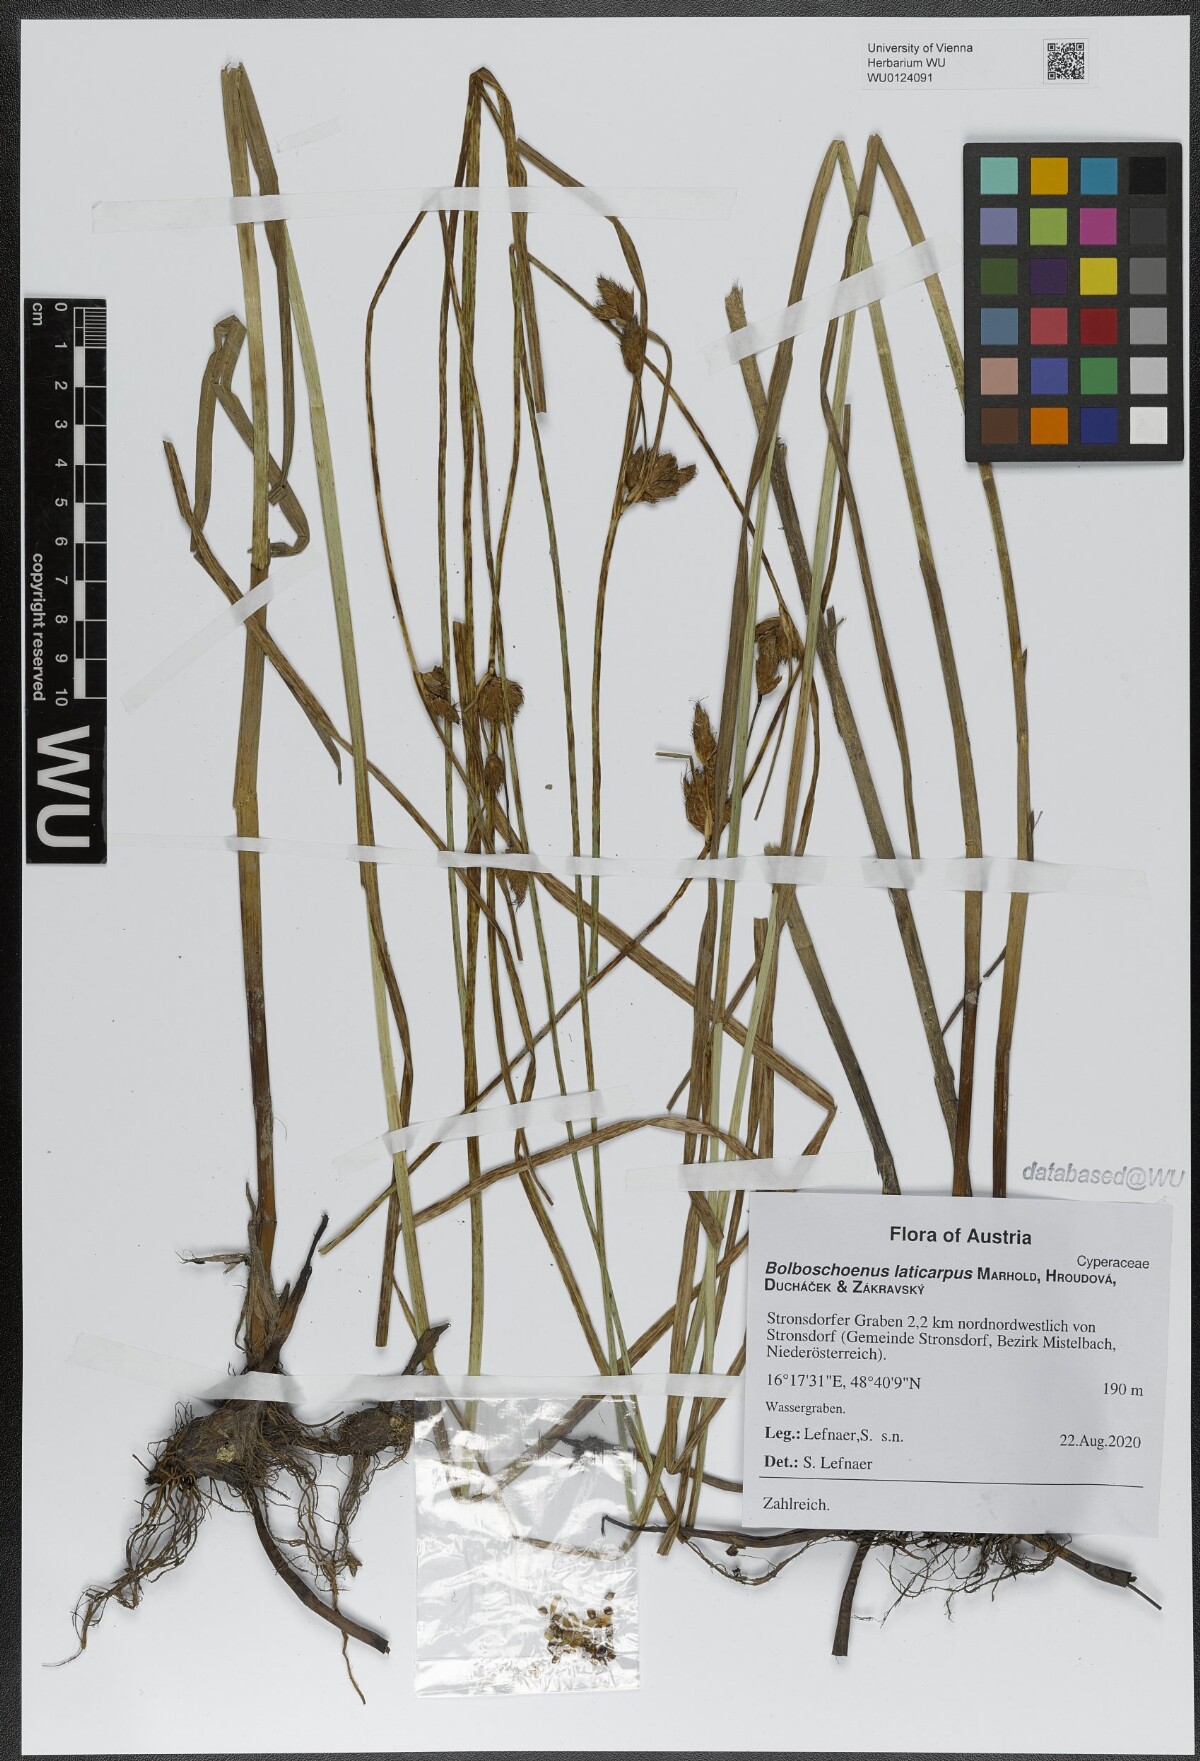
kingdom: Plantae
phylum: Tracheophyta
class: Liliopsida
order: Poales
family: Cyperaceae
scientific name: Cyperaceae
